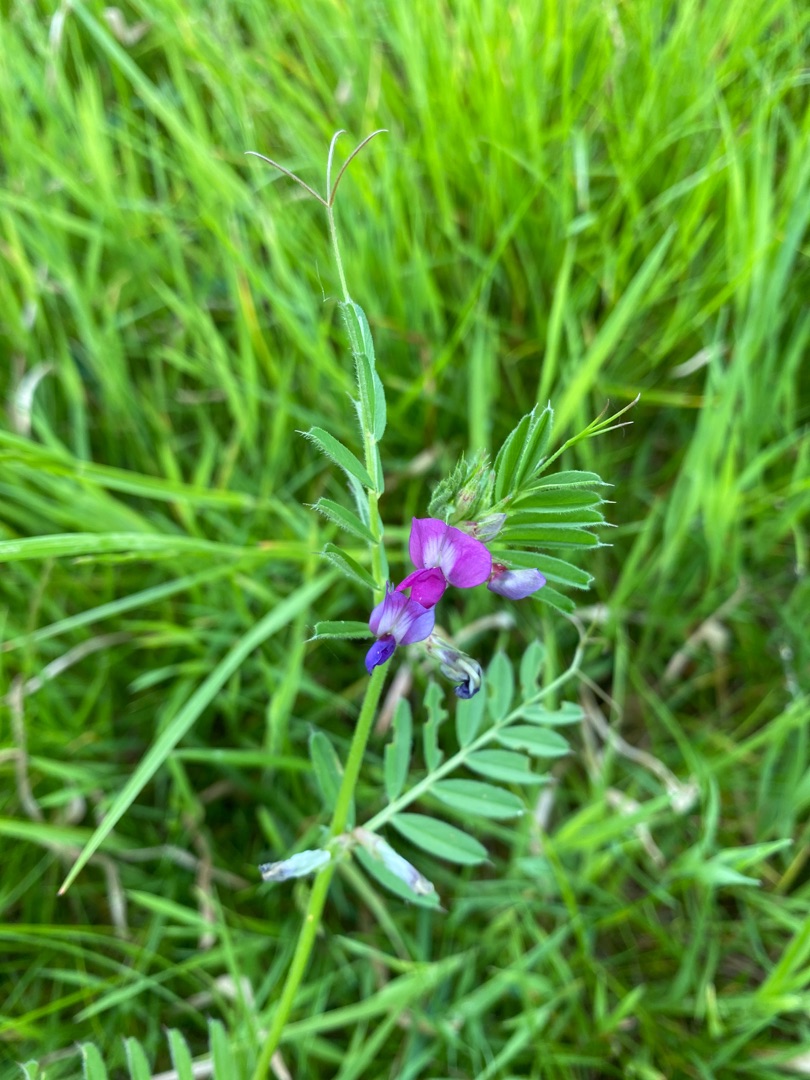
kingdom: Plantae
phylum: Tracheophyta
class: Magnoliopsida
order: Fabales
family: Fabaceae
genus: Vicia
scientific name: Vicia sativa
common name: Foder-vikke
